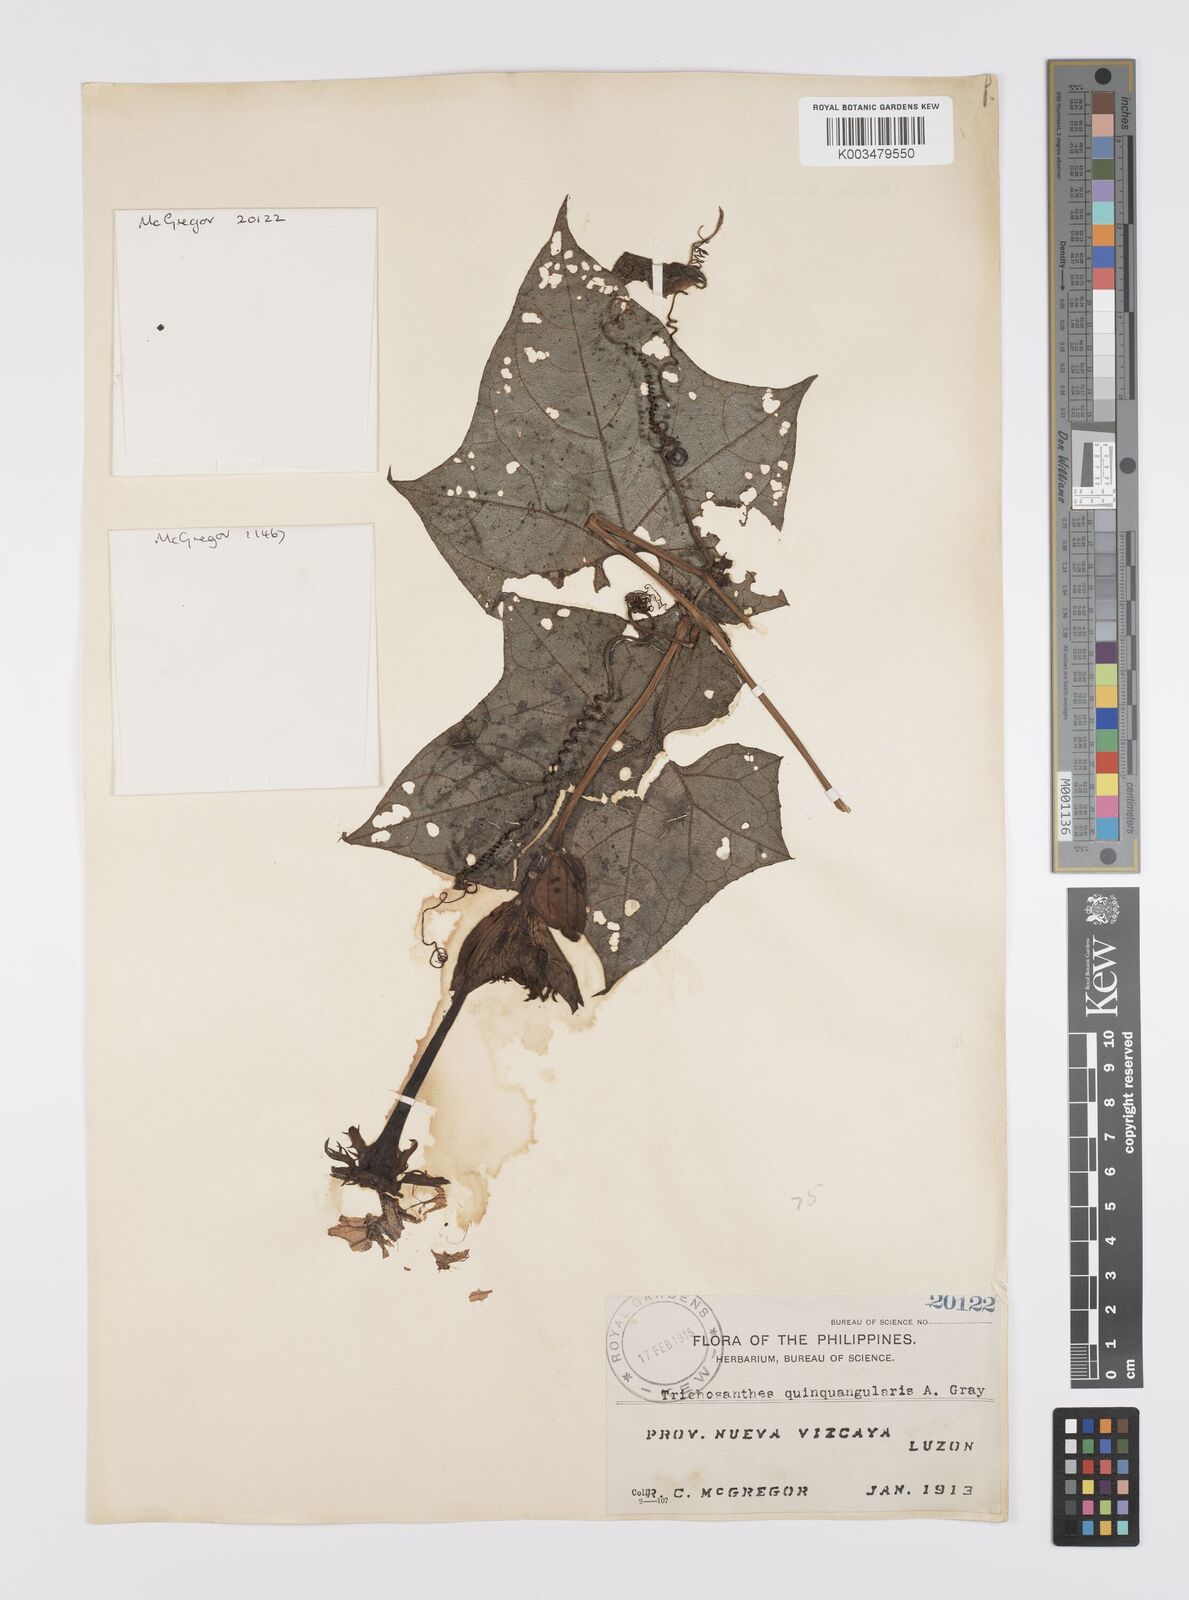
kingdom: Plantae
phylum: Tracheophyta
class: Magnoliopsida
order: Cucurbitales
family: Cucurbitaceae
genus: Trichosanthes
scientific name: Trichosanthes tricuspidata
